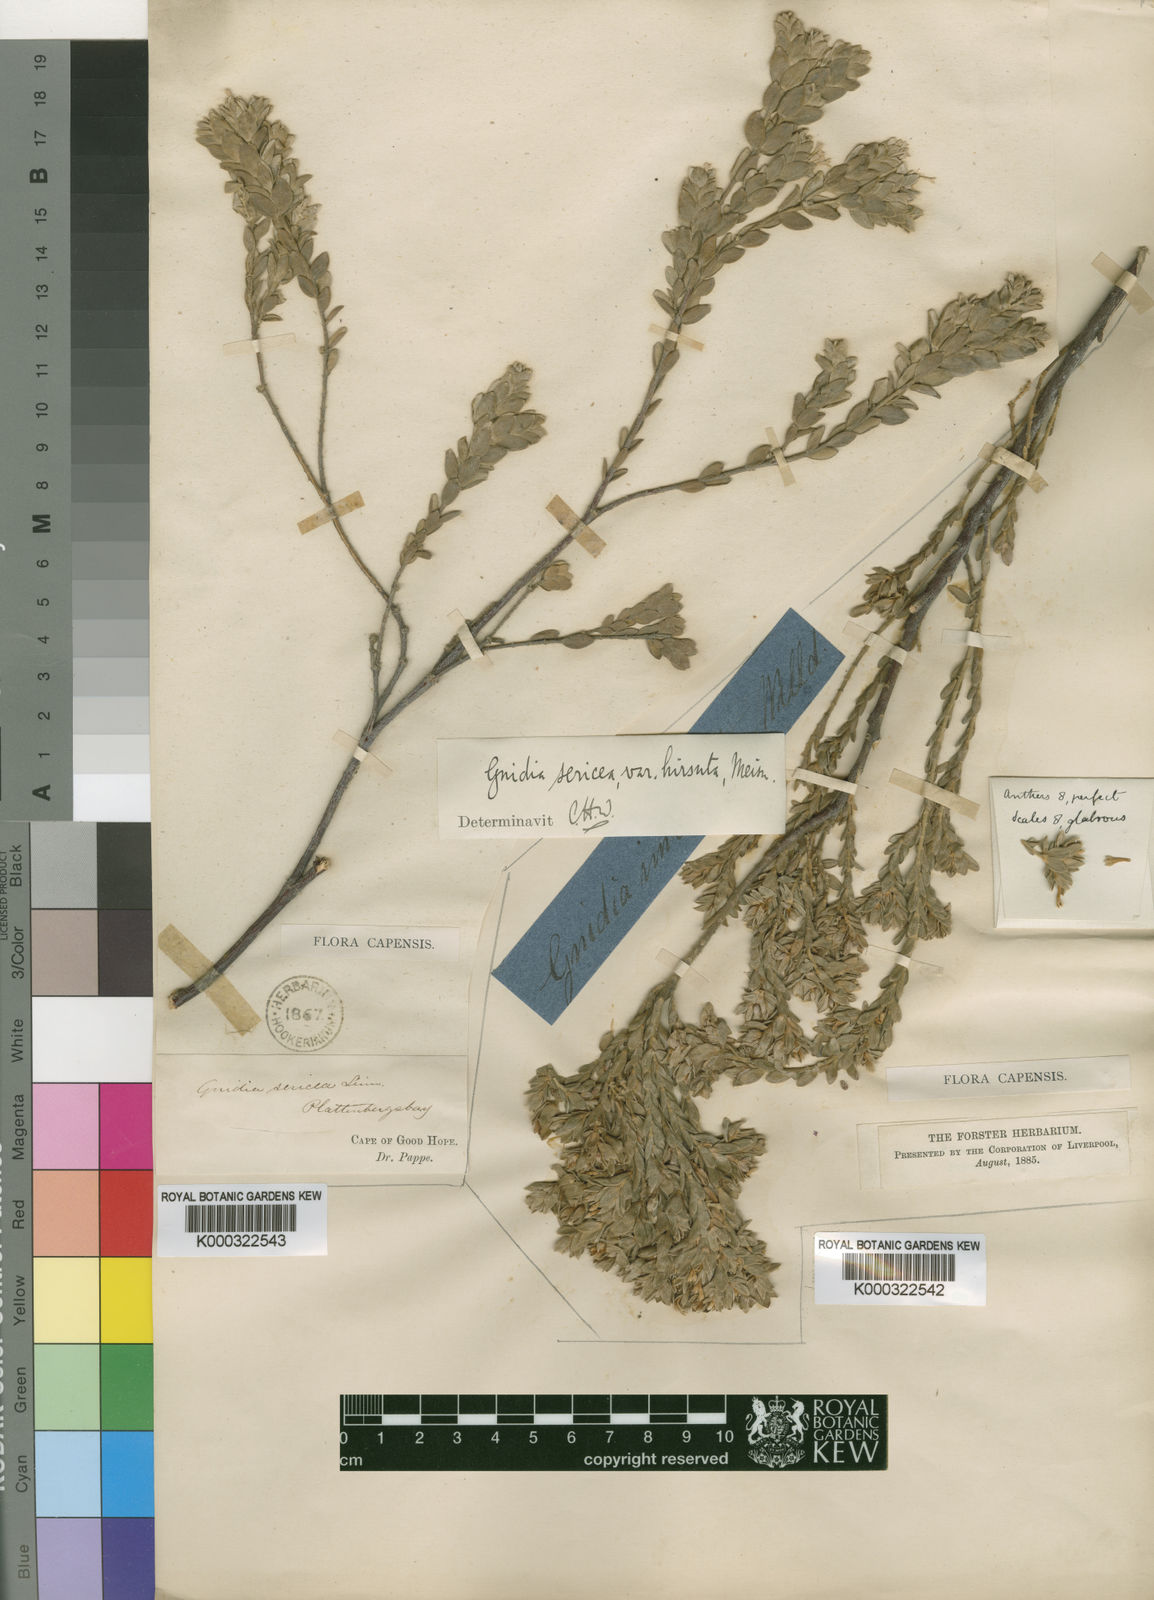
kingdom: Plantae
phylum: Tracheophyta
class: Magnoliopsida
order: Malvales
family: Thymelaeaceae
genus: Gnidia
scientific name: Gnidia sericea
